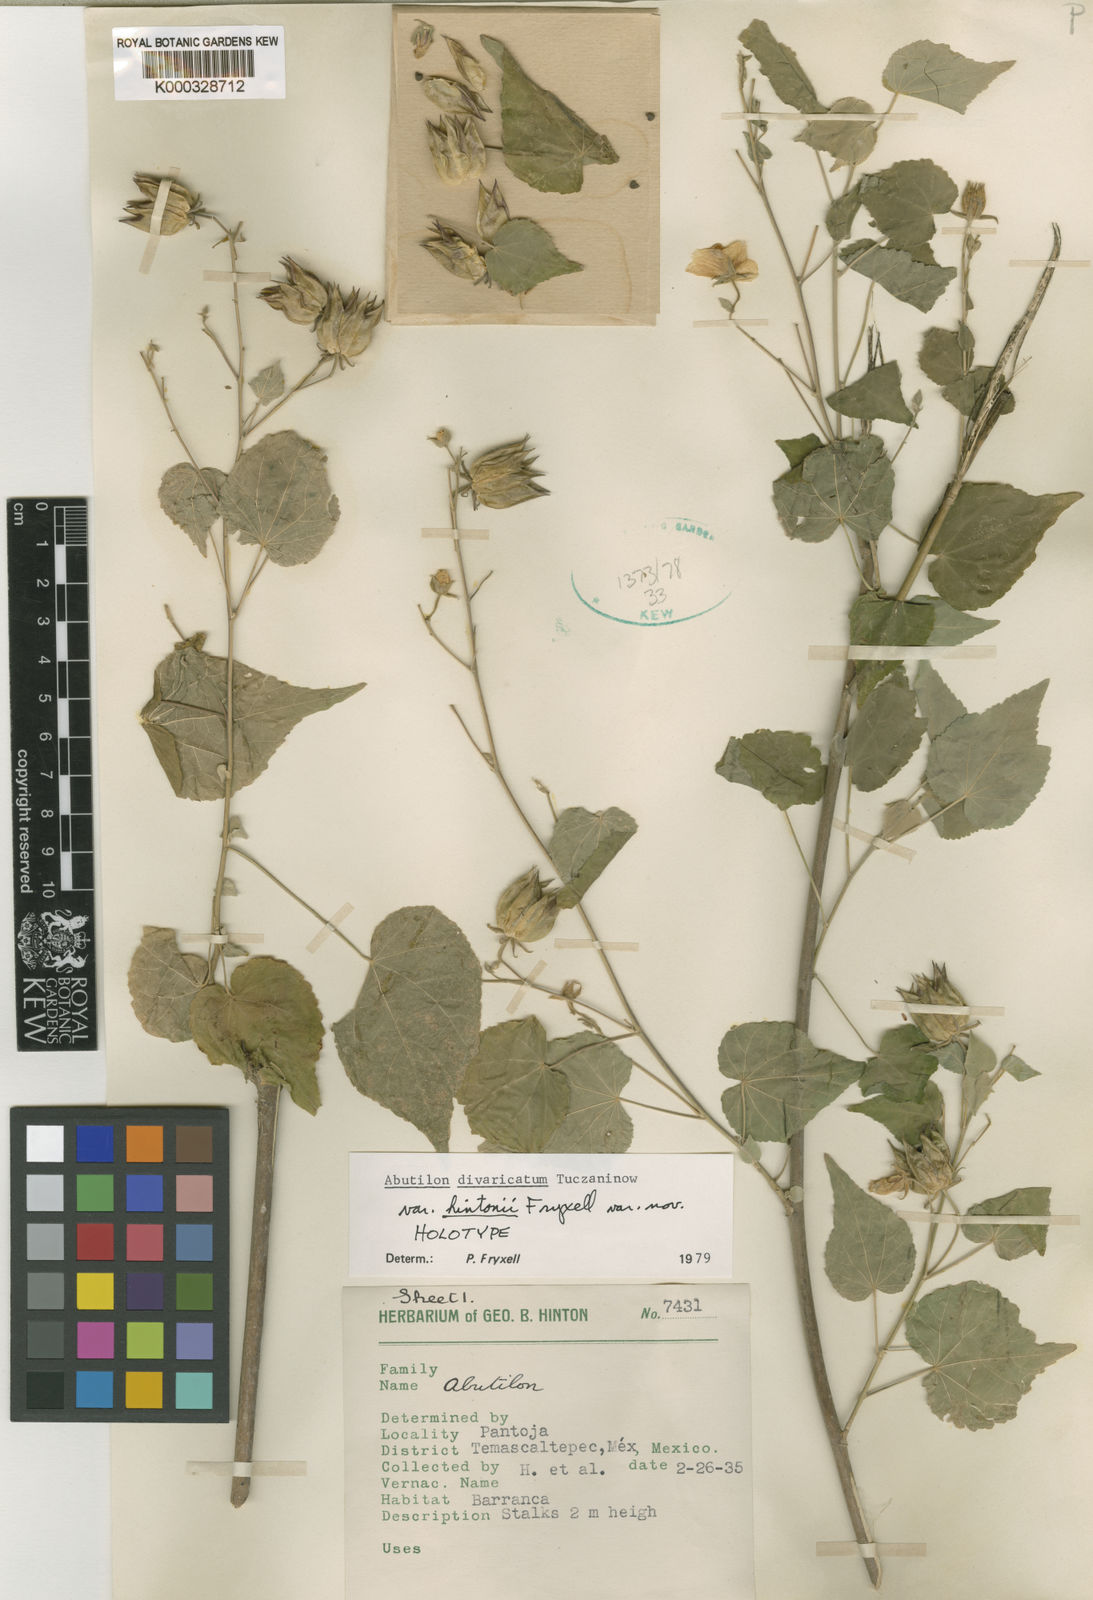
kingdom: Plantae
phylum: Tracheophyta
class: Magnoliopsida
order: Malvales
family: Malvaceae
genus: Abutilon
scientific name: Abutilon divaricatum
